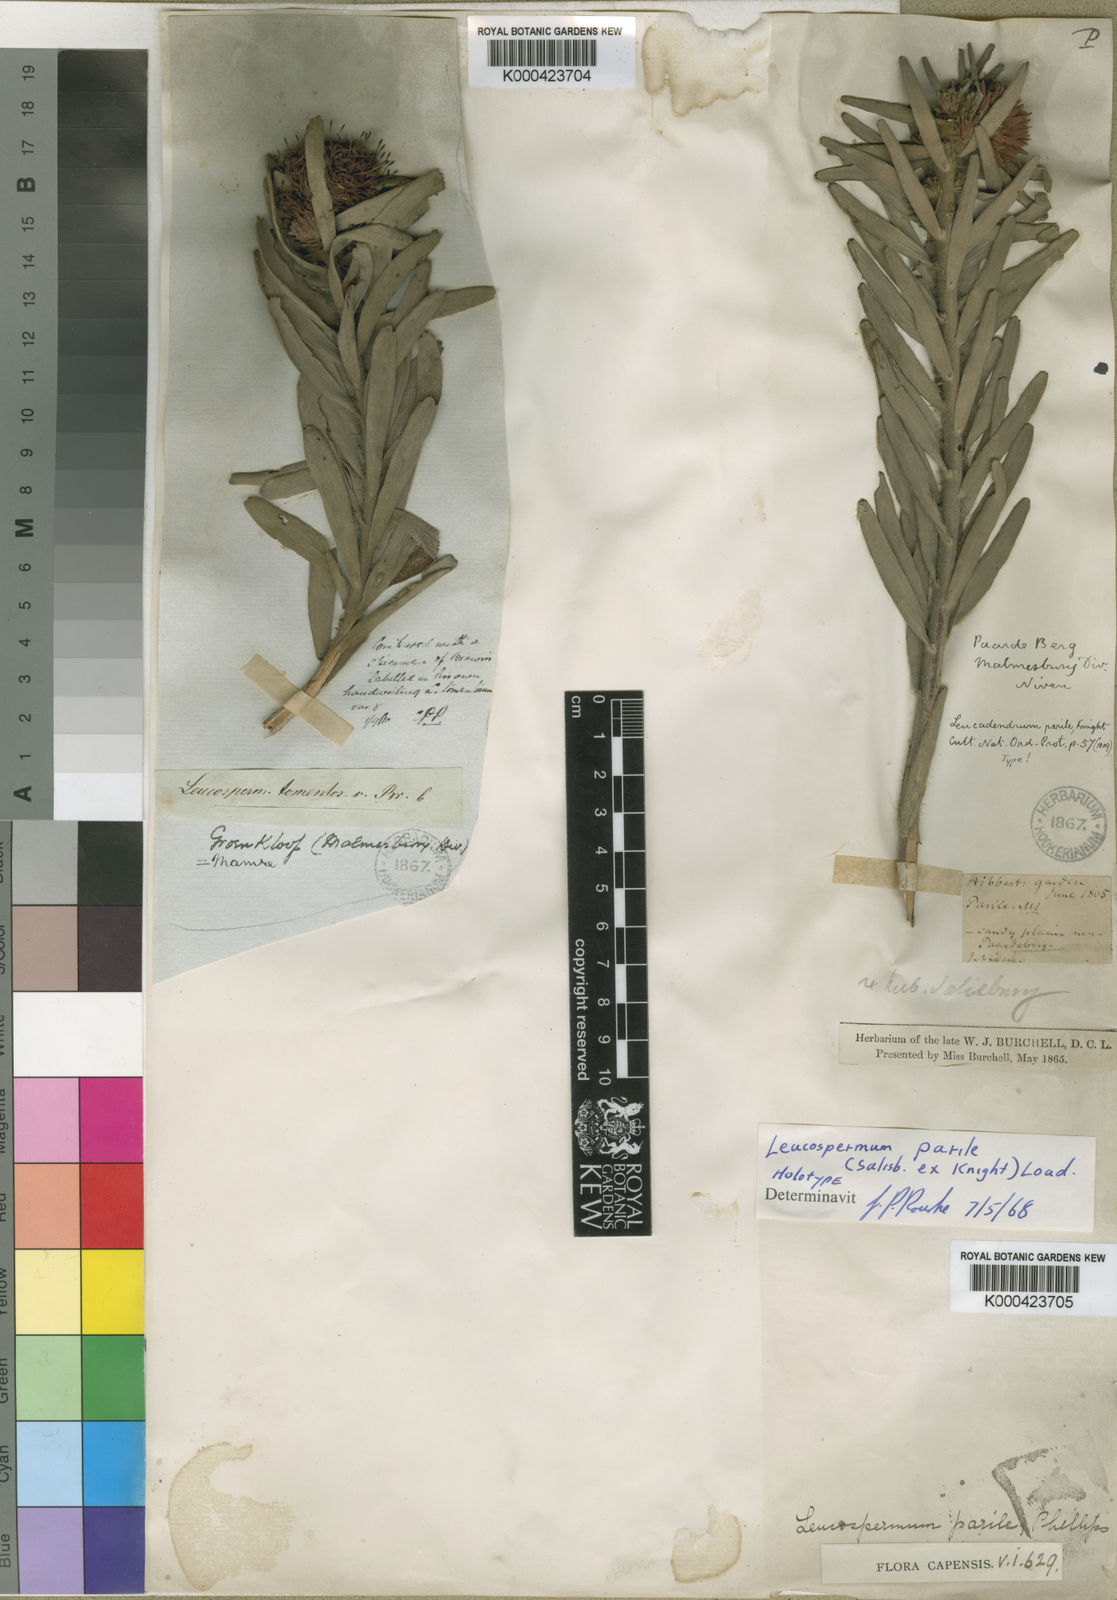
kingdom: Plantae
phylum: Tracheophyta
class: Magnoliopsida
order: Proteales
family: Proteaceae
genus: Leucospermum
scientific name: Leucospermum parile
